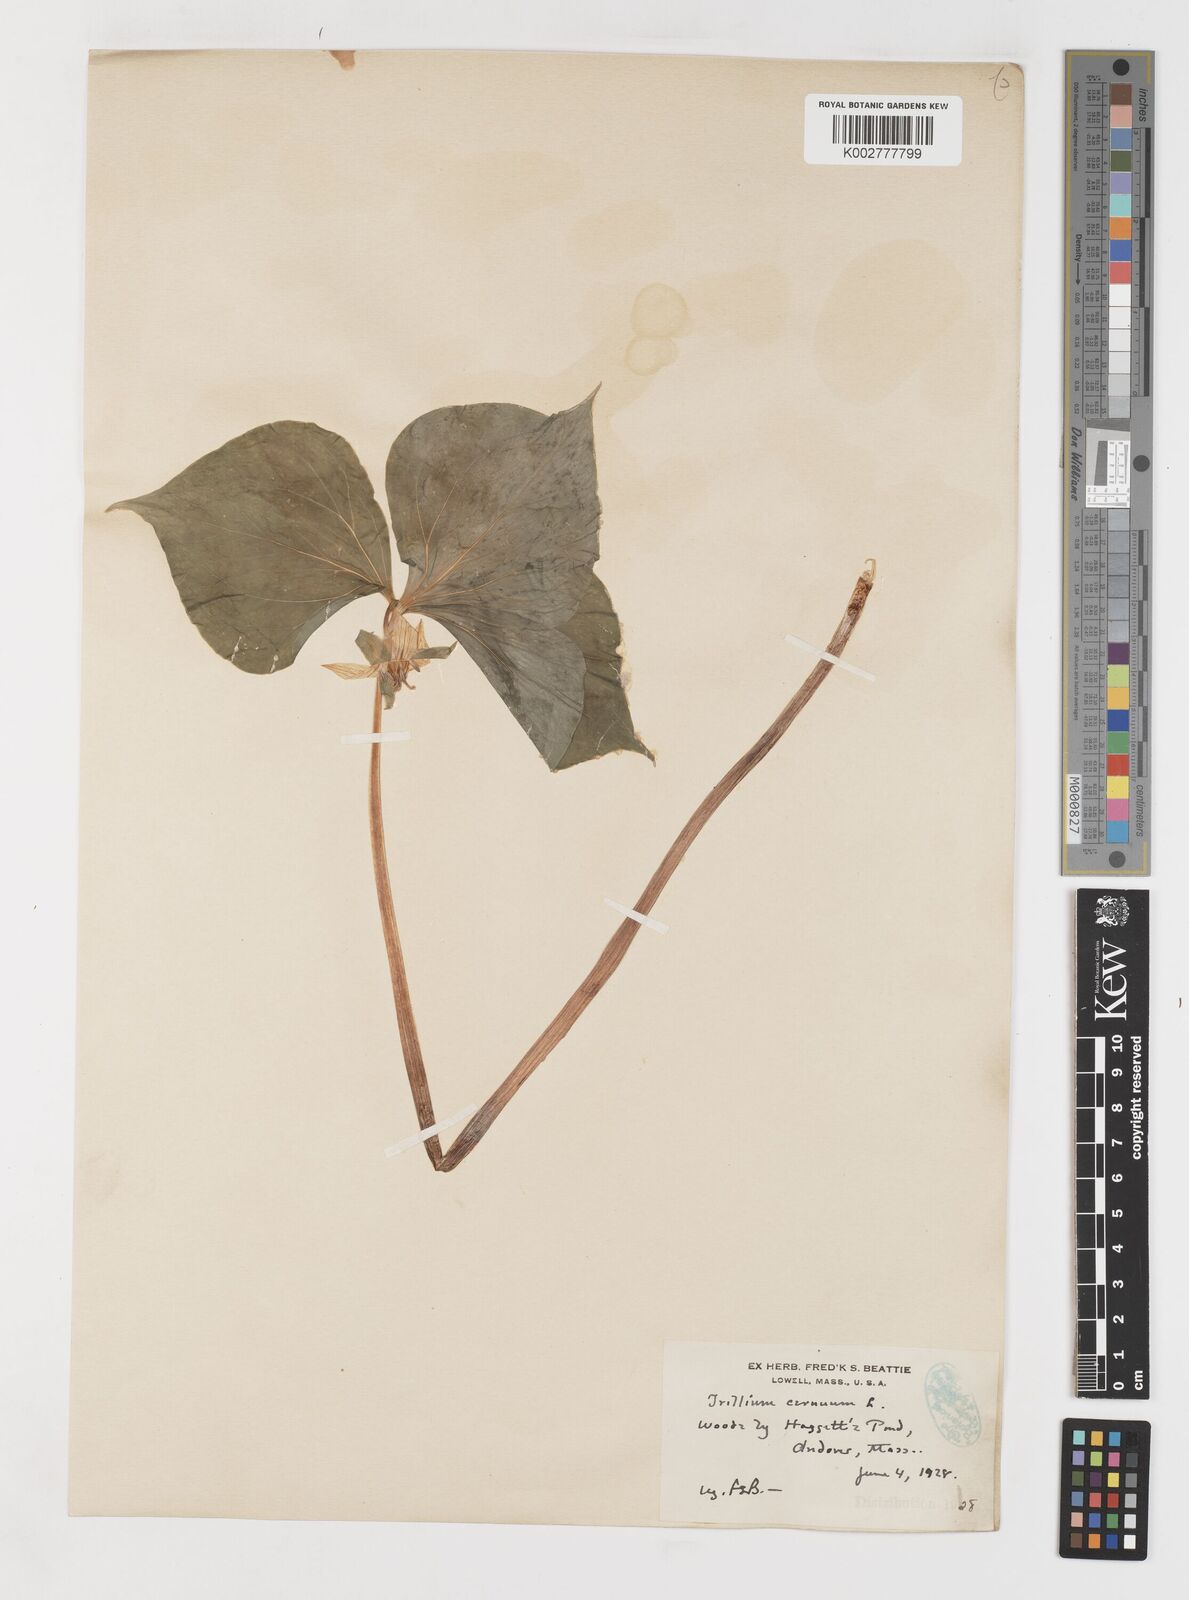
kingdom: Plantae
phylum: Tracheophyta
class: Liliopsida
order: Liliales
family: Melanthiaceae
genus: Trillium
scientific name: Trillium cernuum
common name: Nodding trillium
